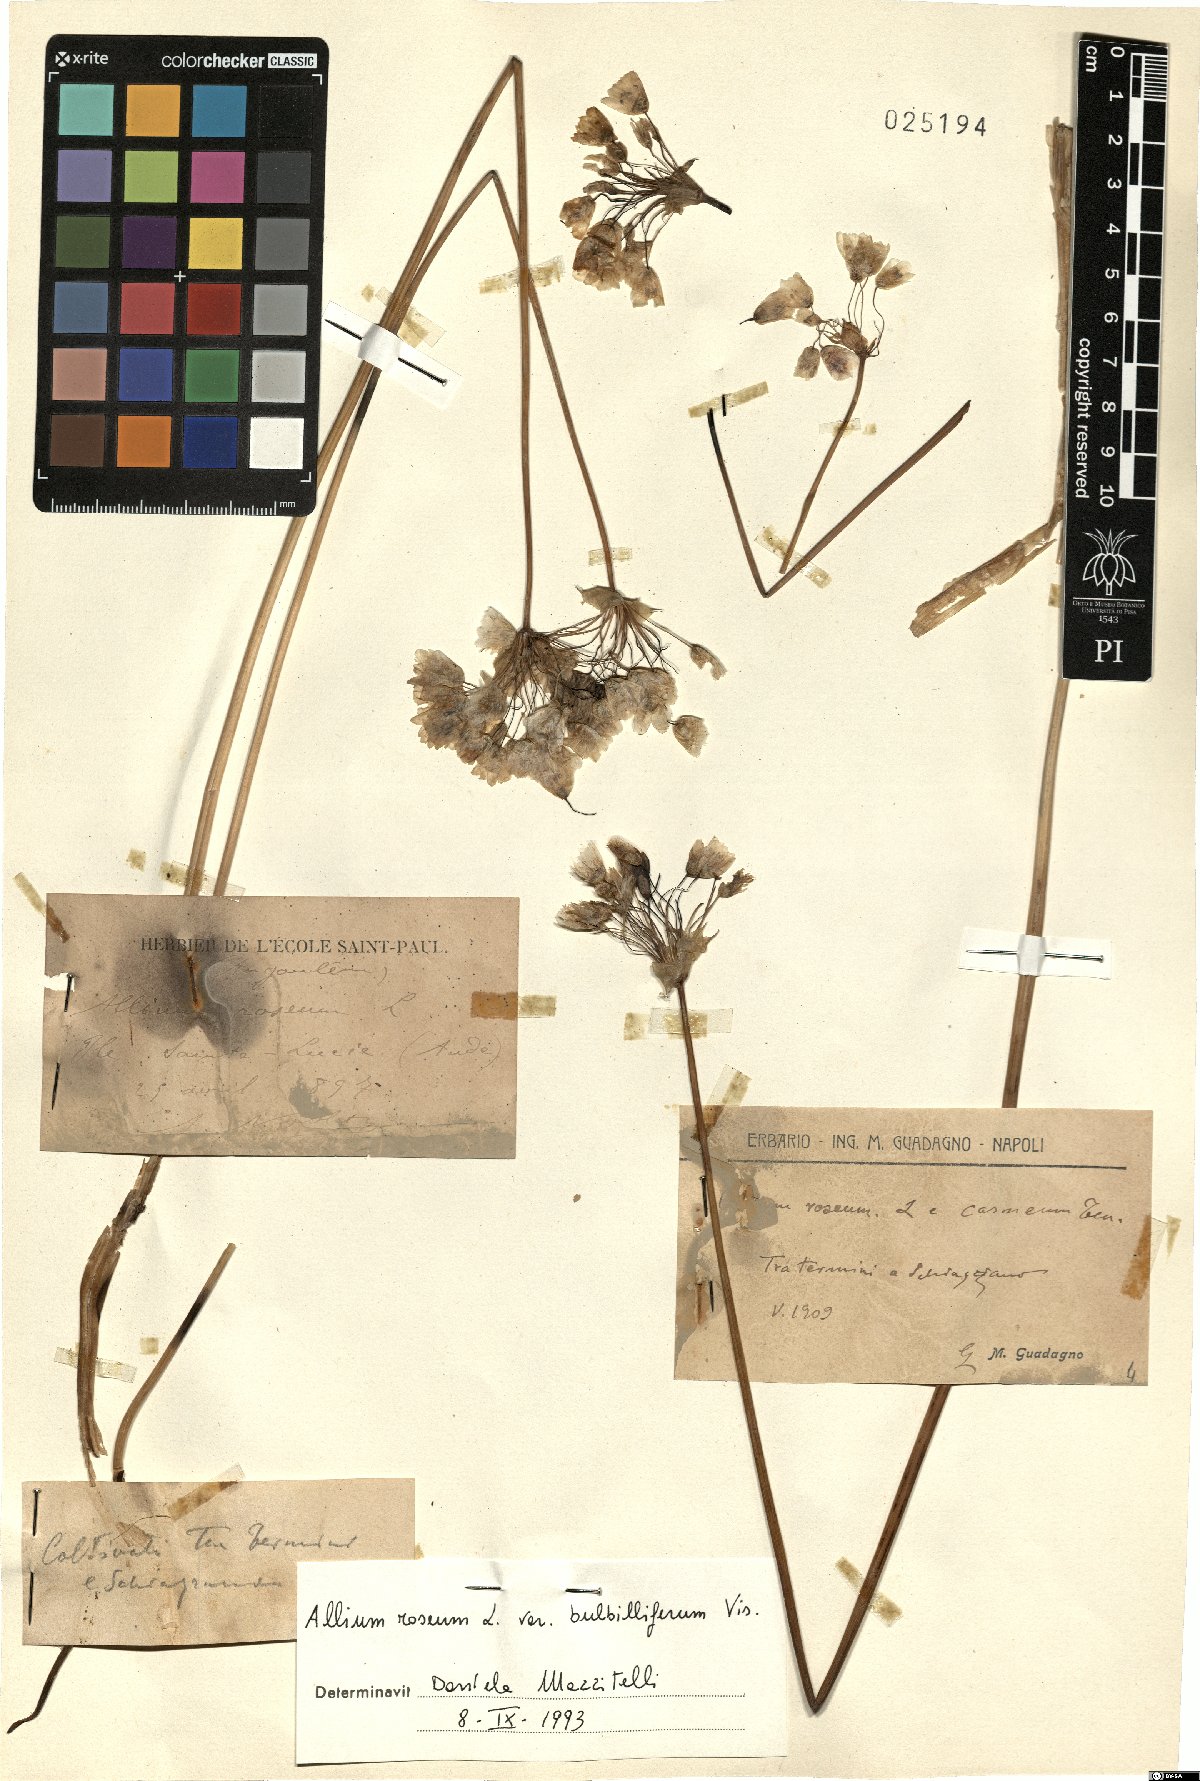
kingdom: Plantae
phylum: Tracheophyta
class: Liliopsida
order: Asparagales
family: Amaryllidaceae
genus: Allium
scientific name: Allium roseum
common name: Rosy garlic
